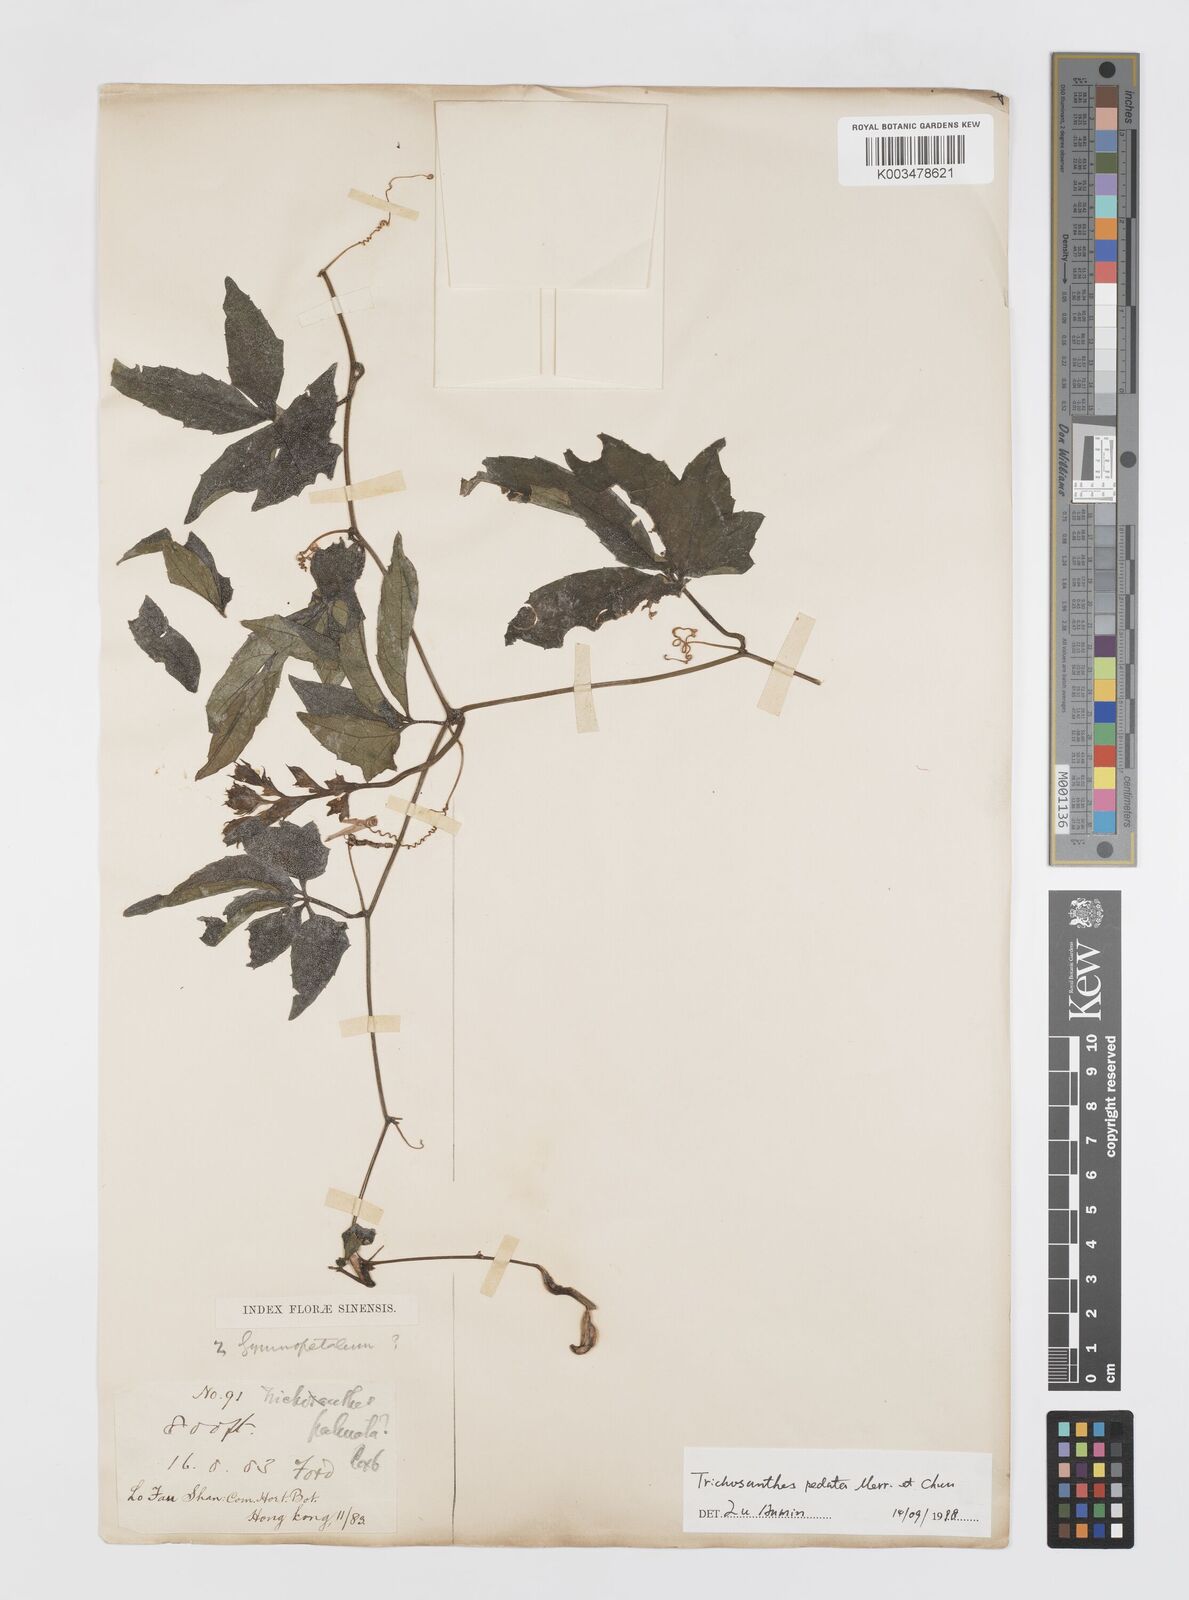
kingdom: Plantae
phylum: Tracheophyta
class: Magnoliopsida
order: Cucurbitales
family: Cucurbitaceae
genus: Trichosanthes
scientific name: Trichosanthes pedata
